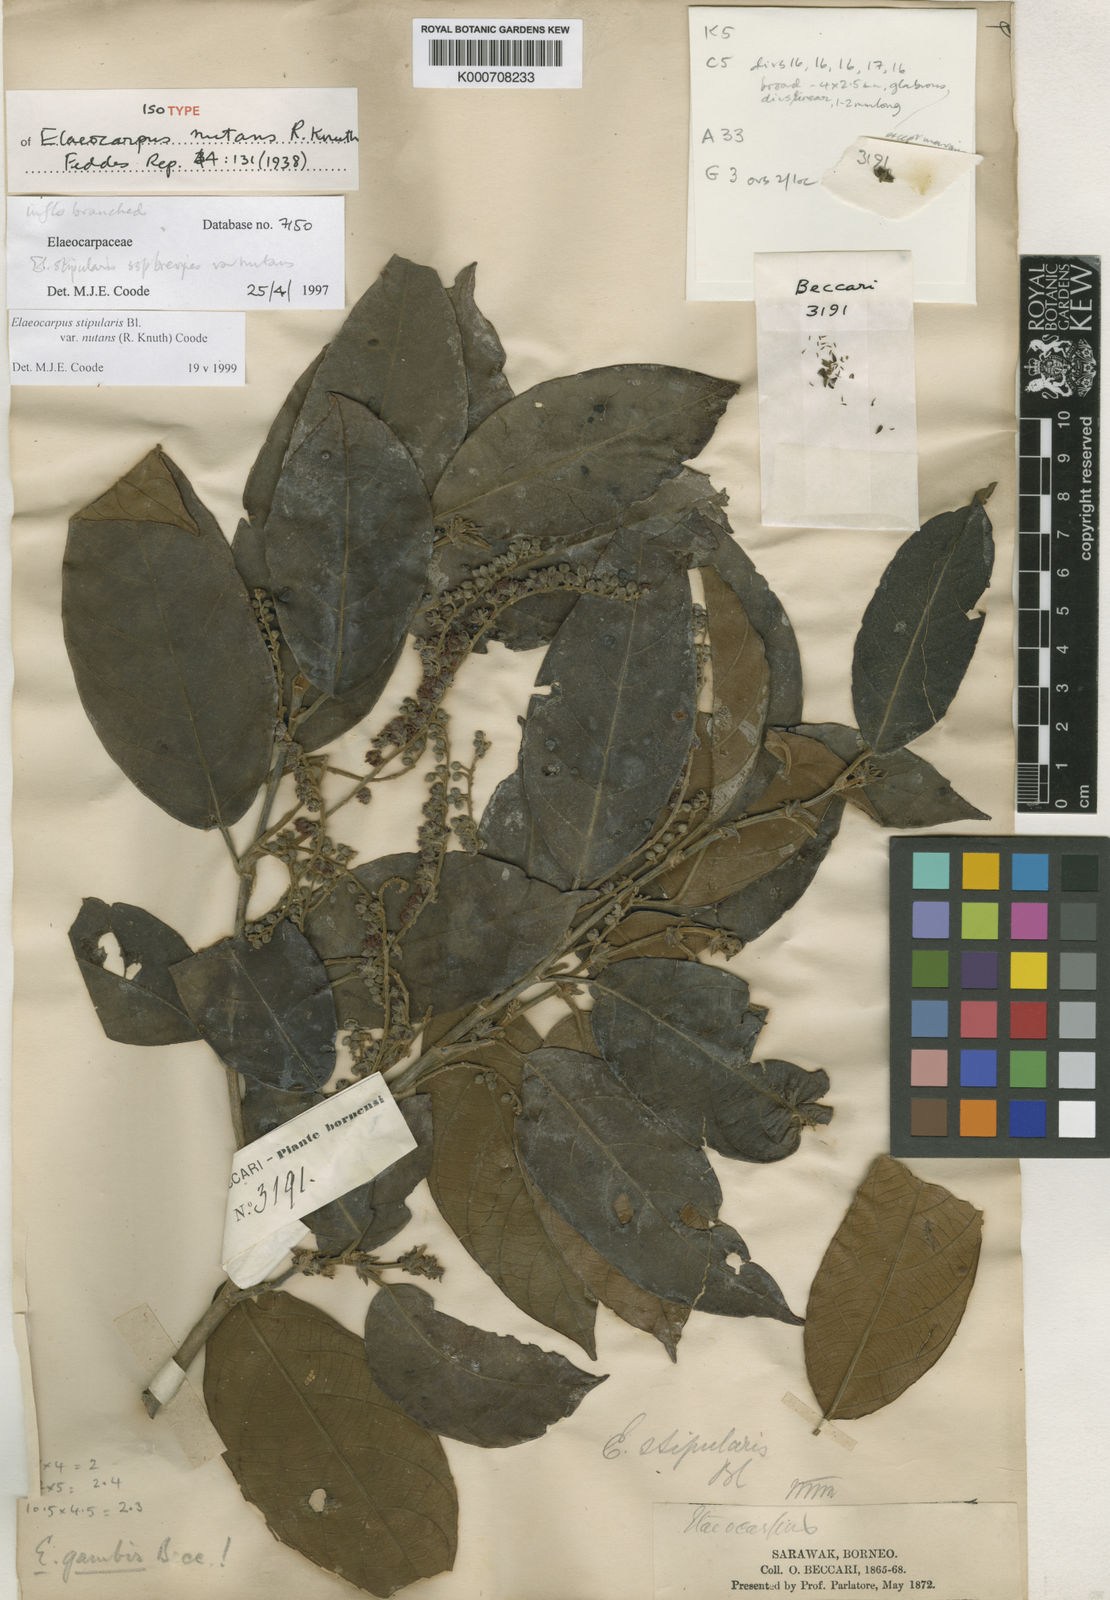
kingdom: Plantae
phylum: Tracheophyta
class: Magnoliopsida
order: Oxalidales
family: Elaeocarpaceae
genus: Elaeocarpus
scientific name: Elaeocarpus stipularis
